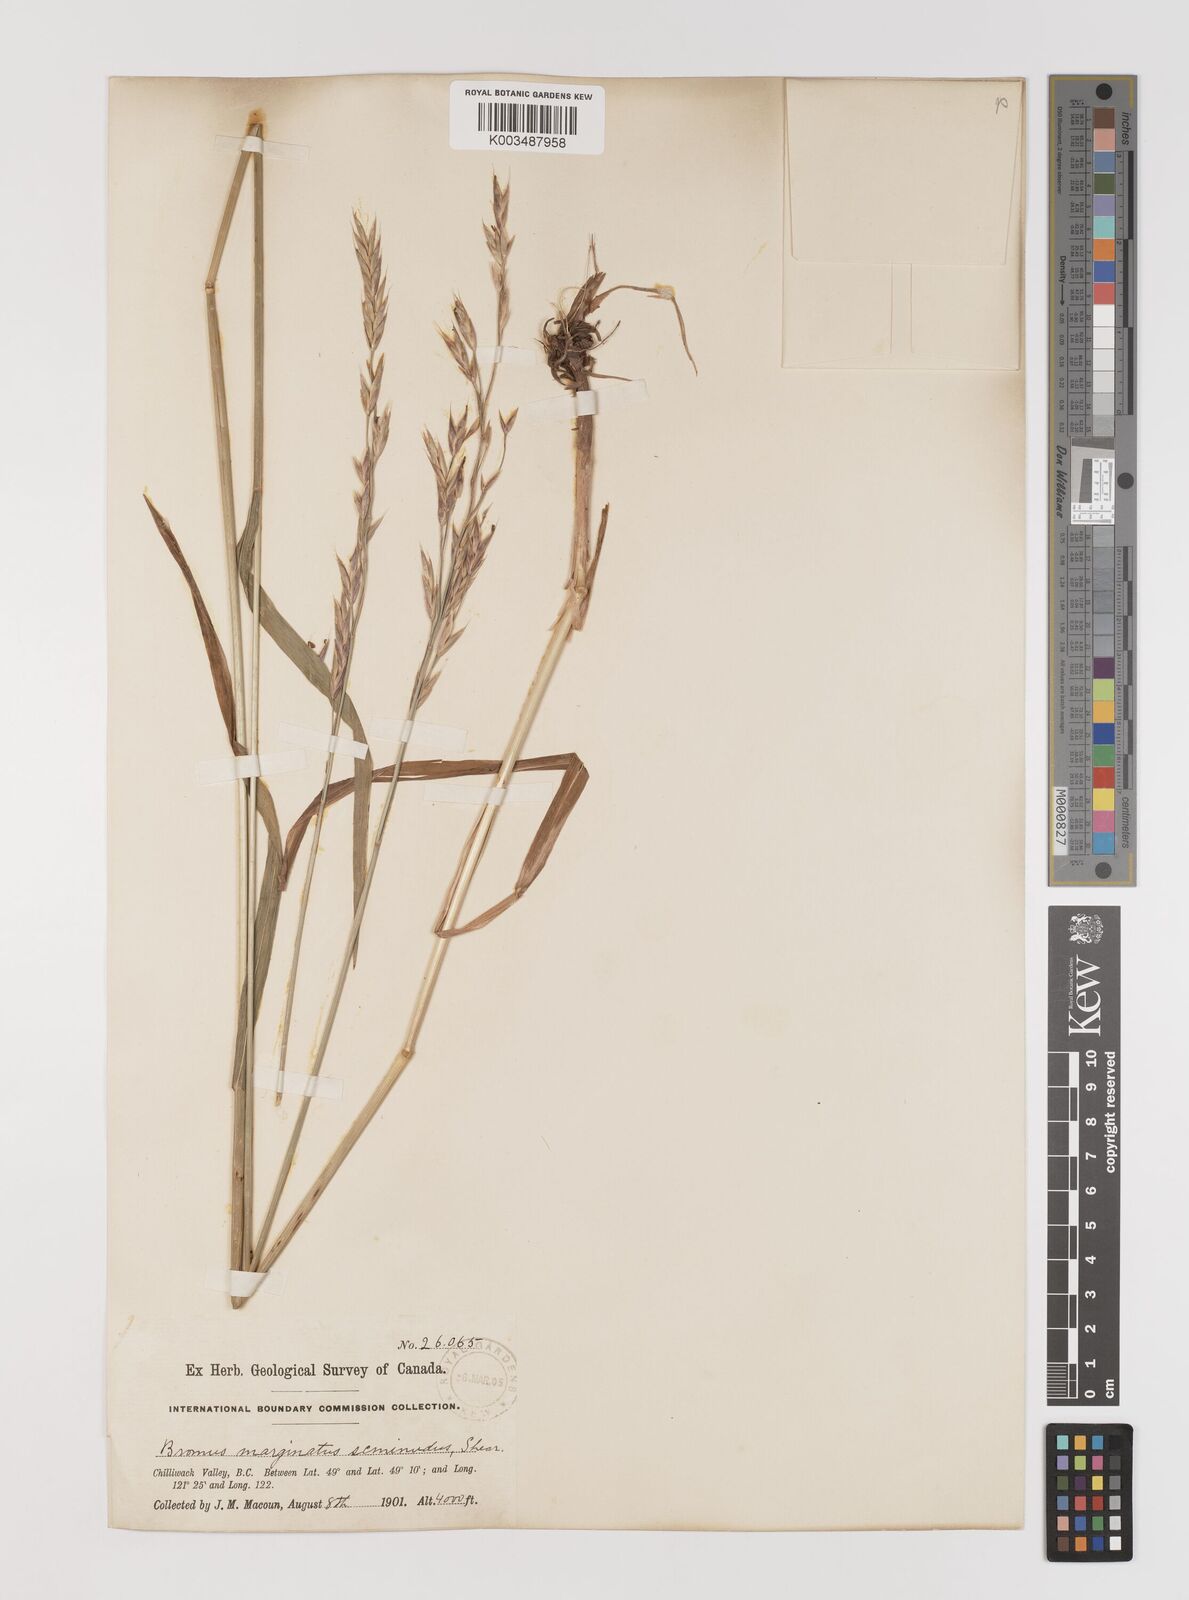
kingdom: Plantae
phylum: Tracheophyta
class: Liliopsida
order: Poales
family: Poaceae
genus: Bromus
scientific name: Bromus marginatus
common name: Western brome
